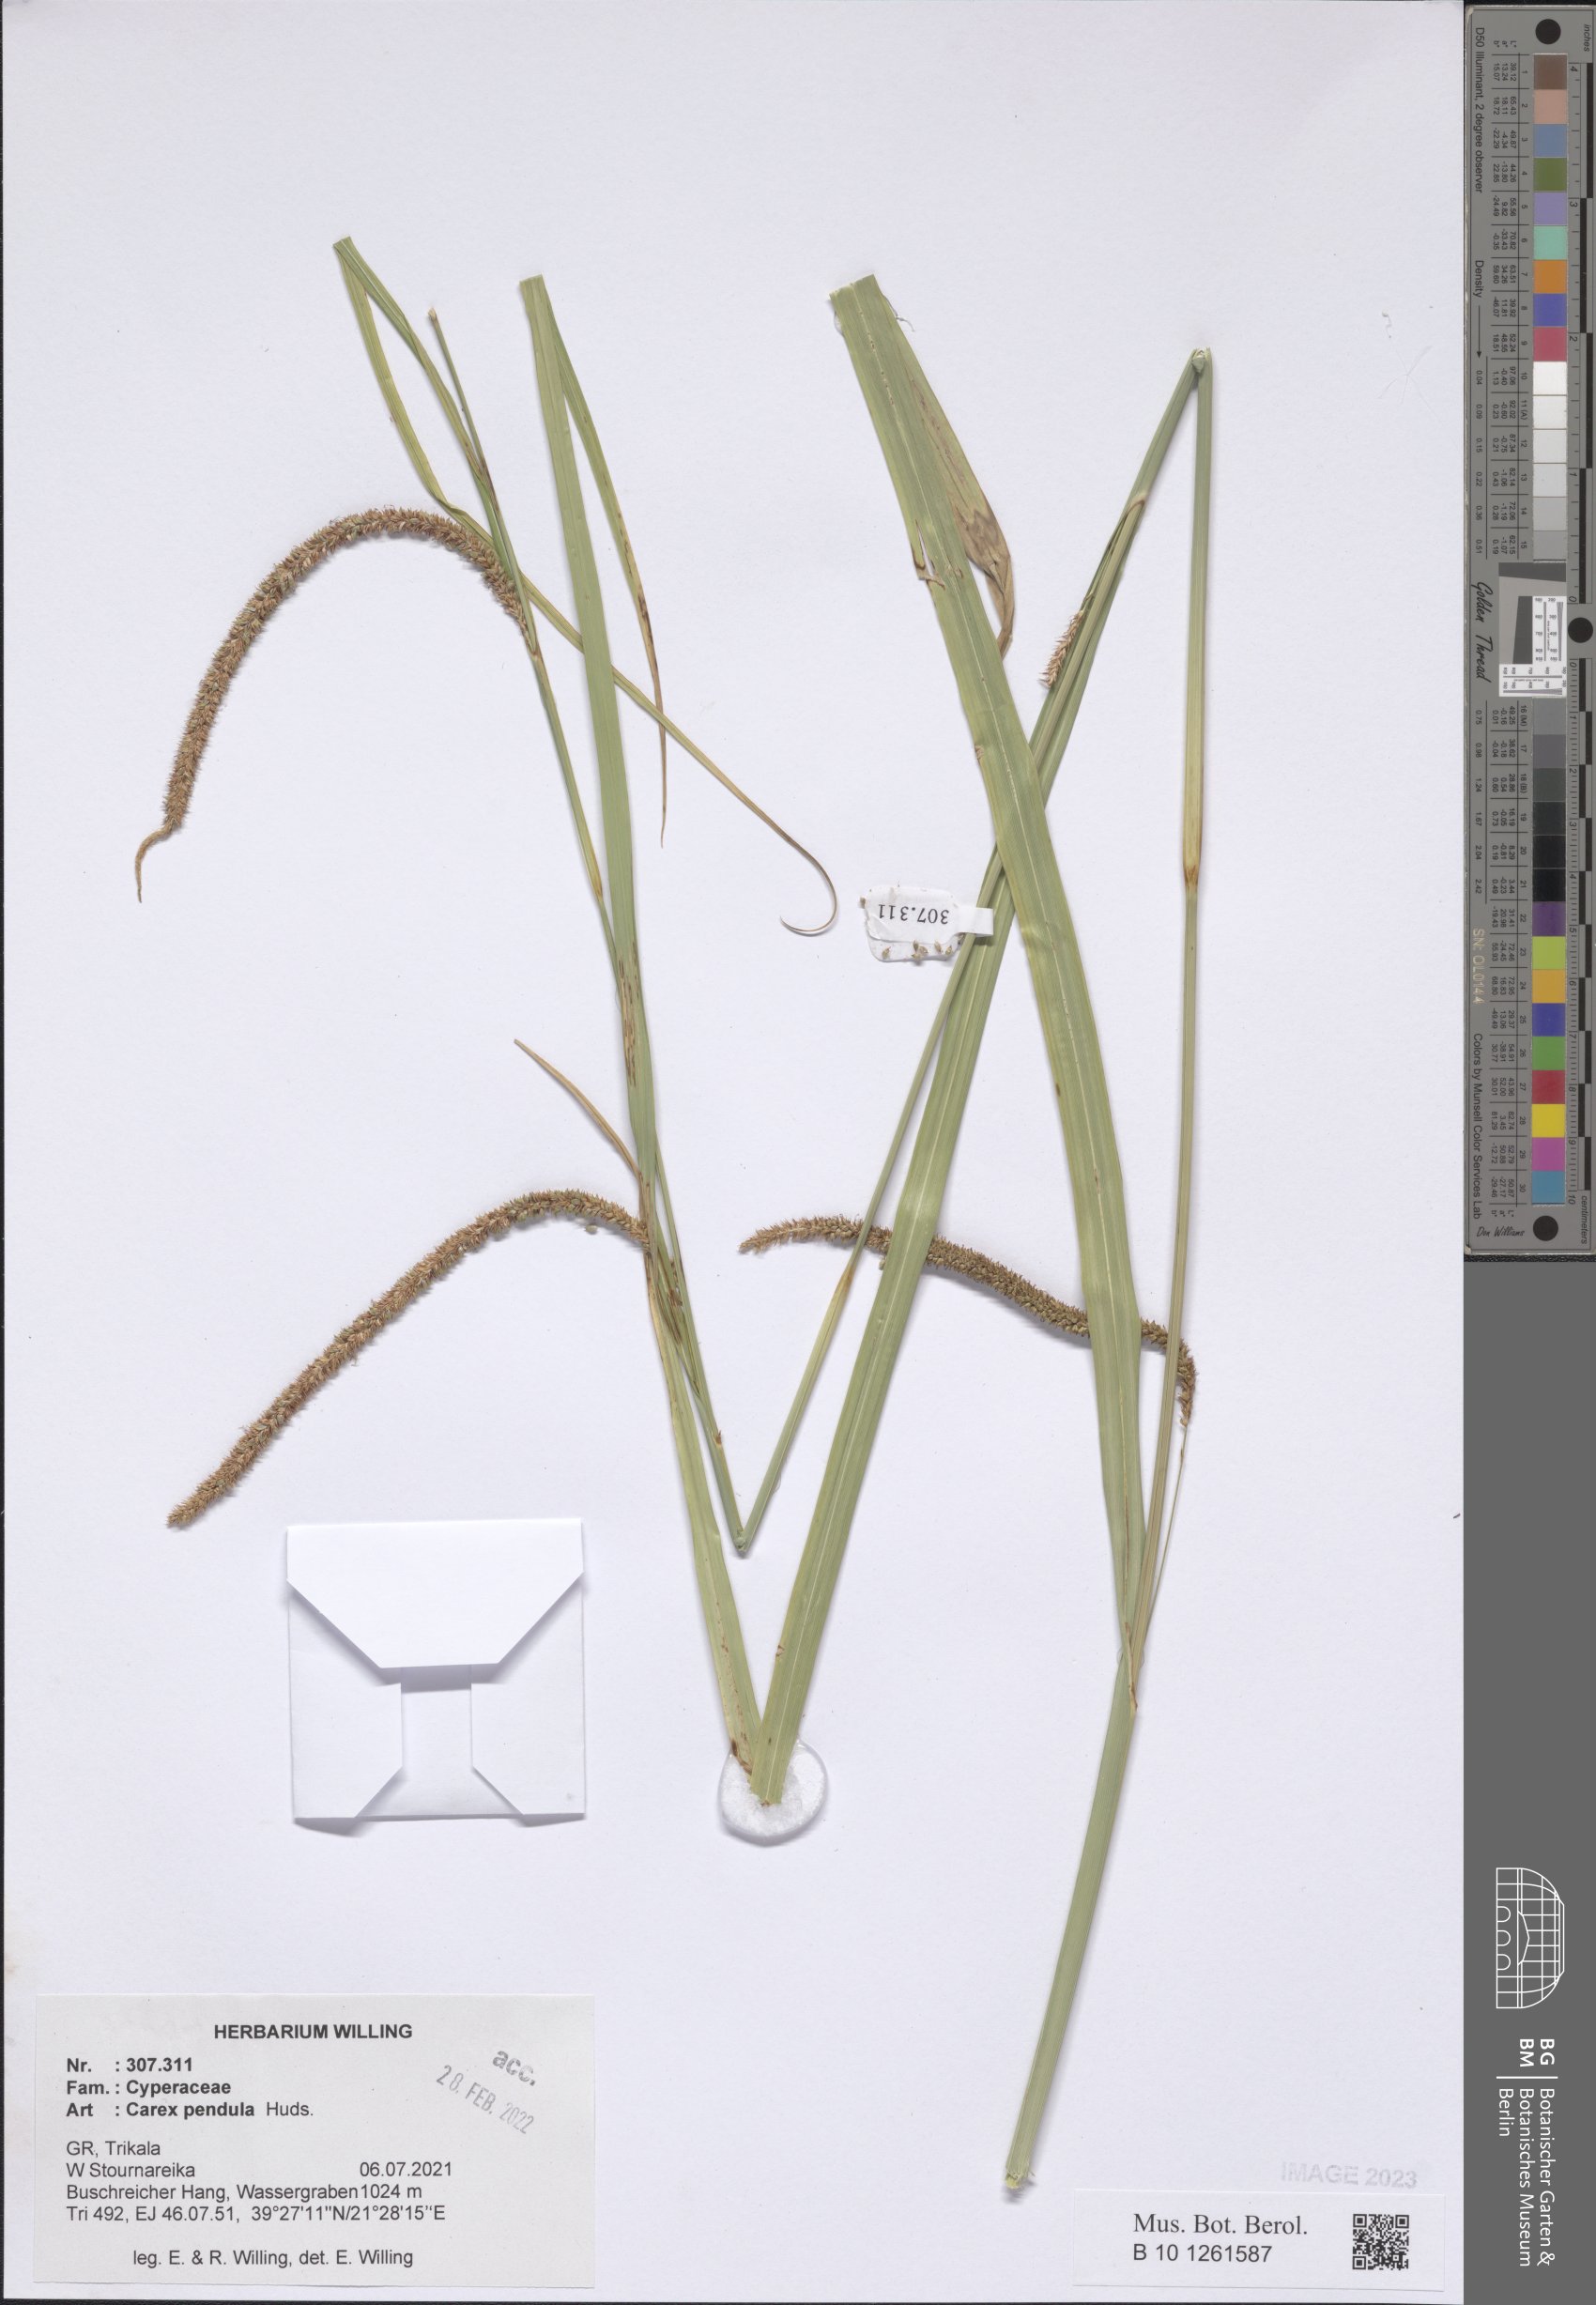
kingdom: Plantae
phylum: Tracheophyta
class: Liliopsida
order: Poales
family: Cyperaceae
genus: Carex
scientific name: Carex pendula
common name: Pendulous sedge
